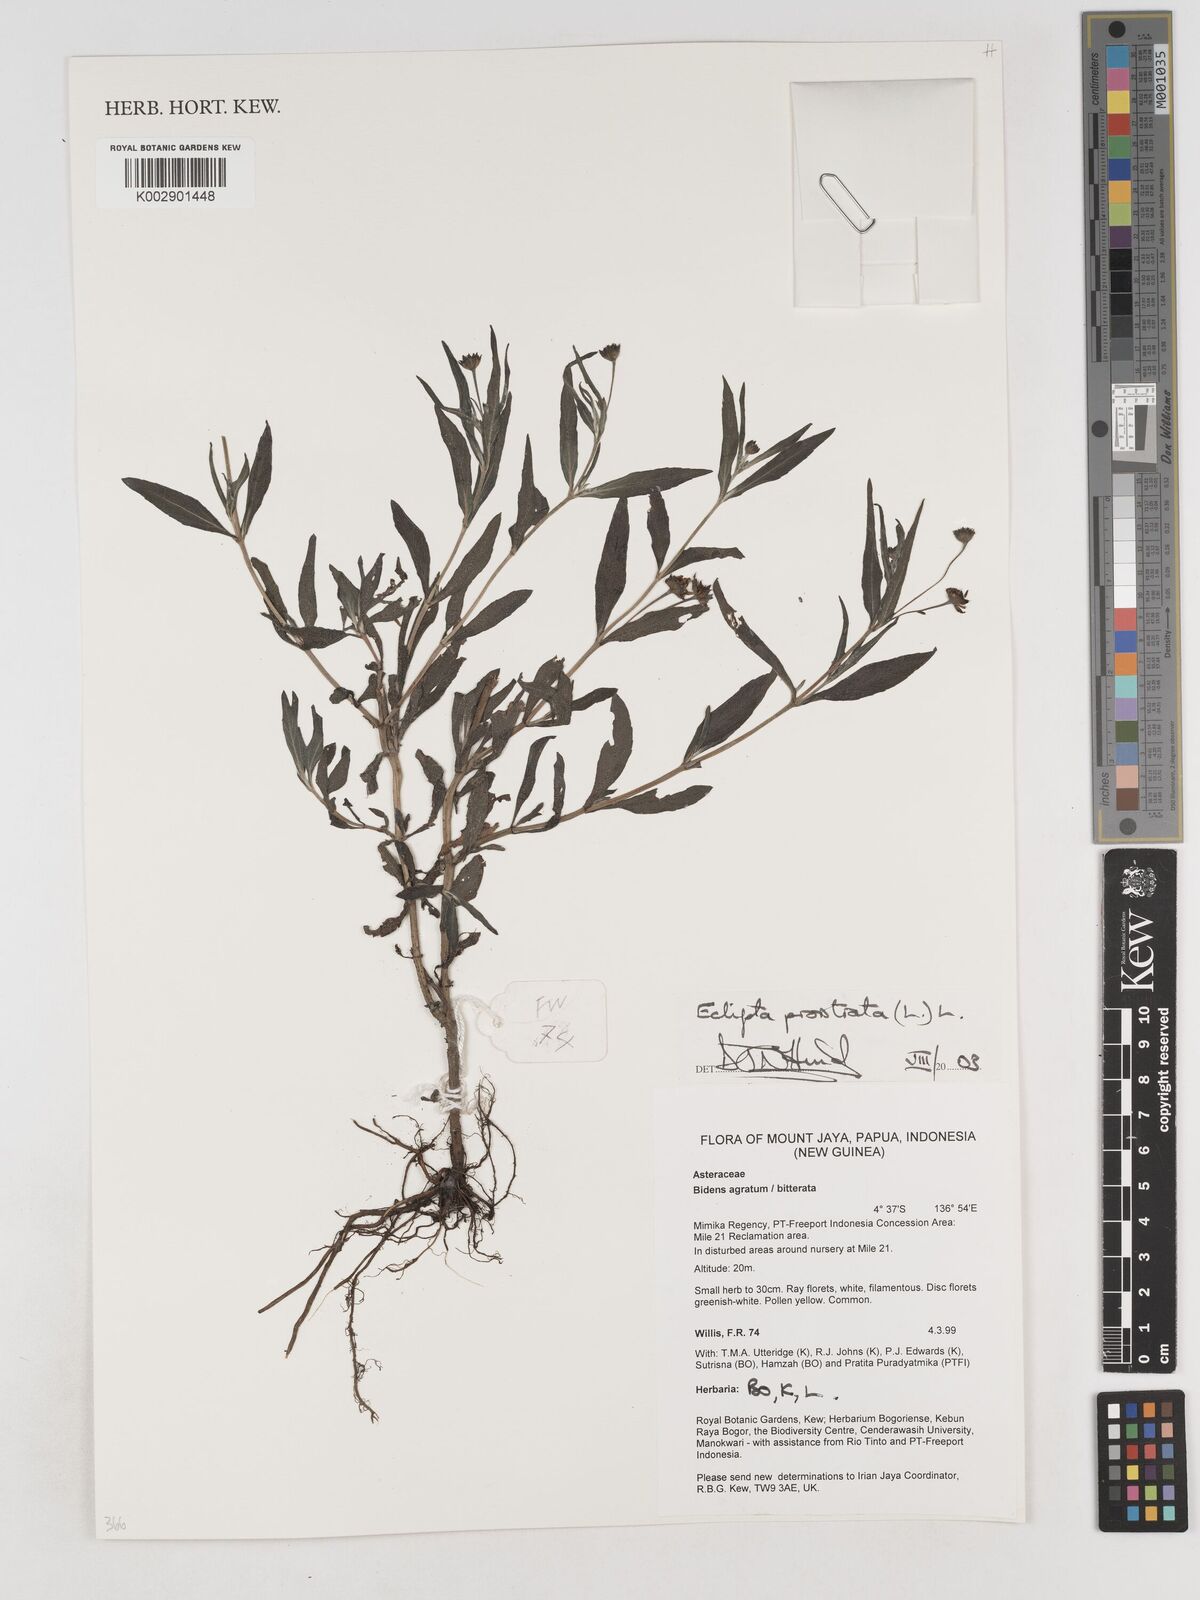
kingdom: Plantae
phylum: Tracheophyta
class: Magnoliopsida
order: Asterales
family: Asteraceae
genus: Eclipta
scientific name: Eclipta prostrata
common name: False daisy
